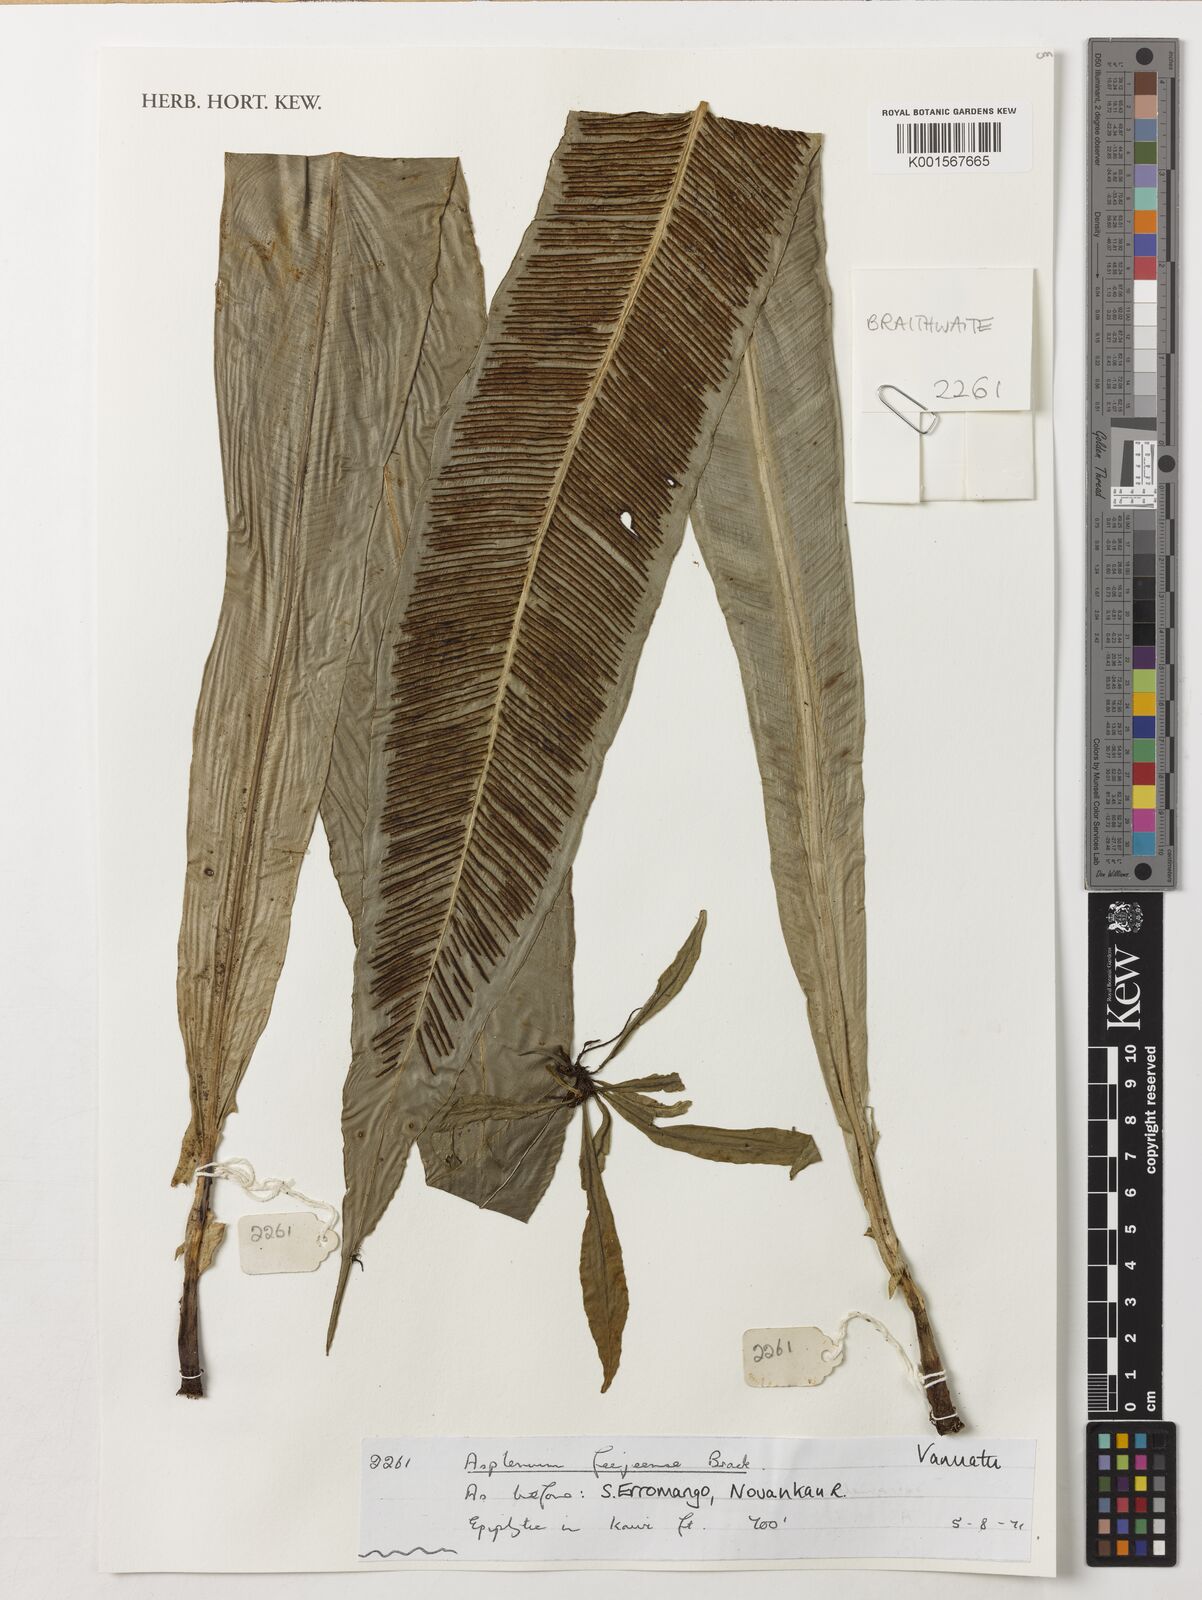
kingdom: Plantae
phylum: Tracheophyta
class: Polypodiopsida
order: Polypodiales
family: Aspleniaceae
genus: Asplenium
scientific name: Asplenium amboinense
